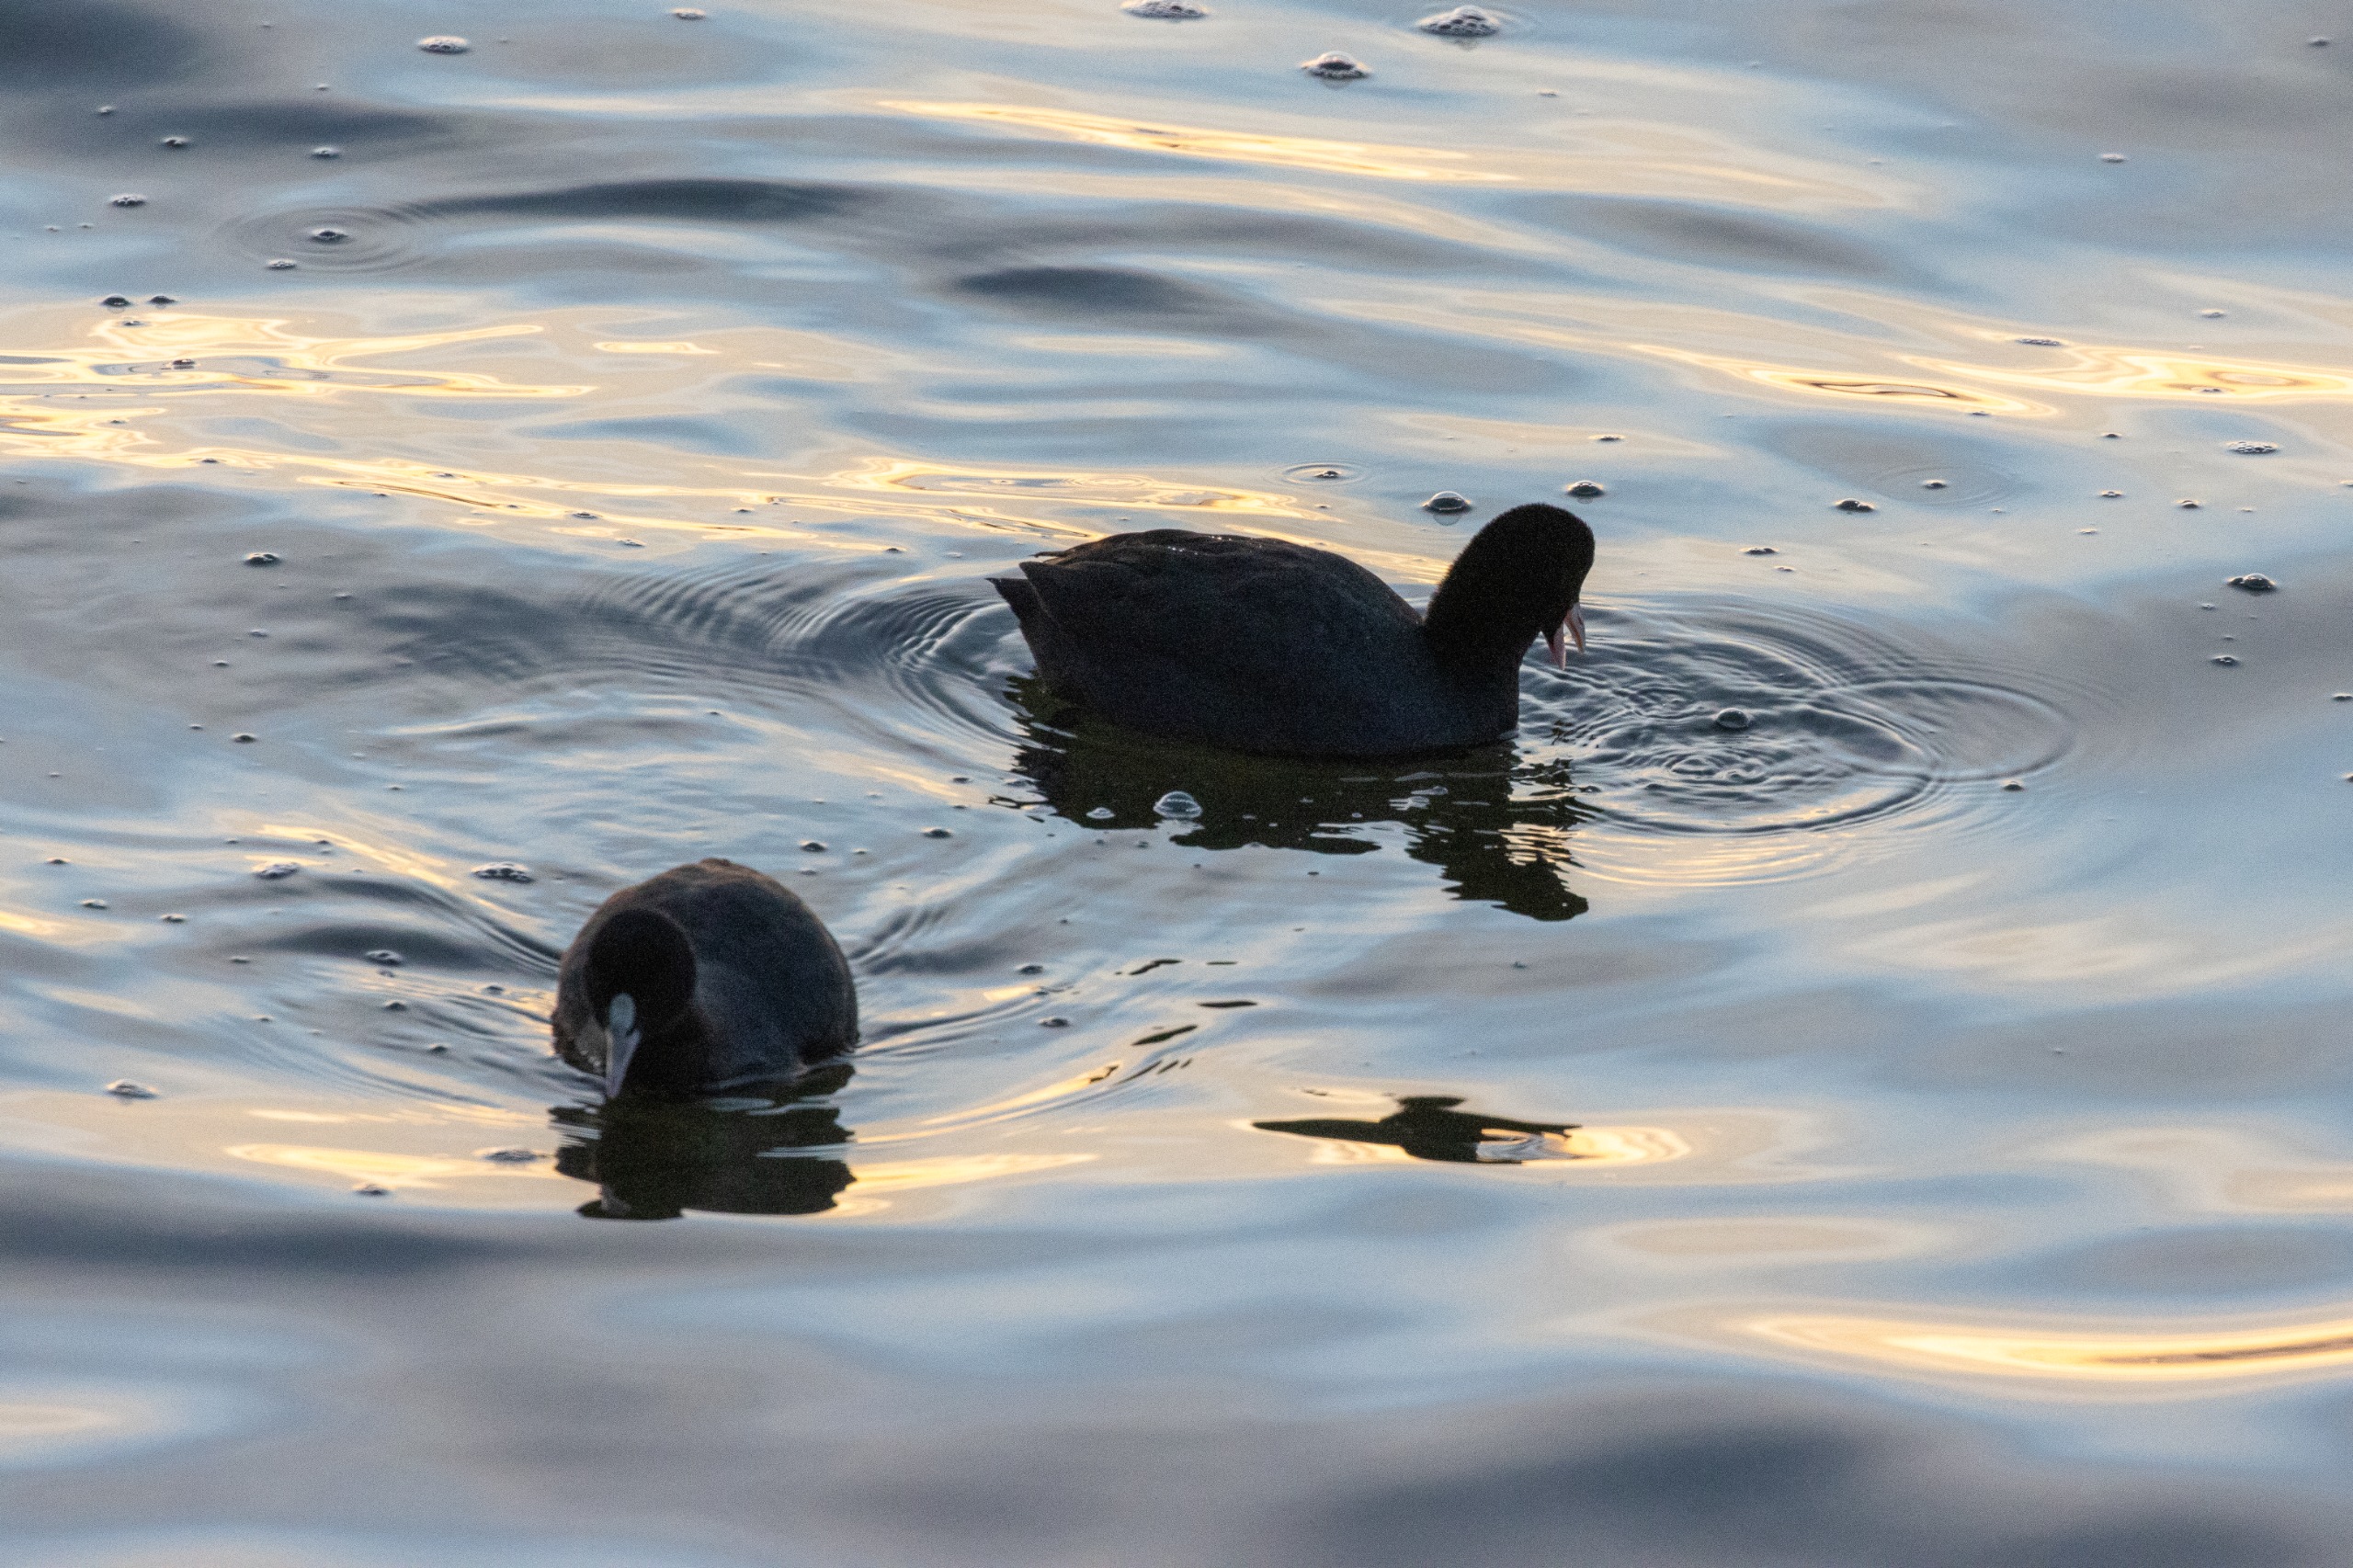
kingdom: Animalia
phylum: Chordata
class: Aves
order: Gruiformes
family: Rallidae
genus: Fulica
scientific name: Fulica atra
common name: Blishøne
